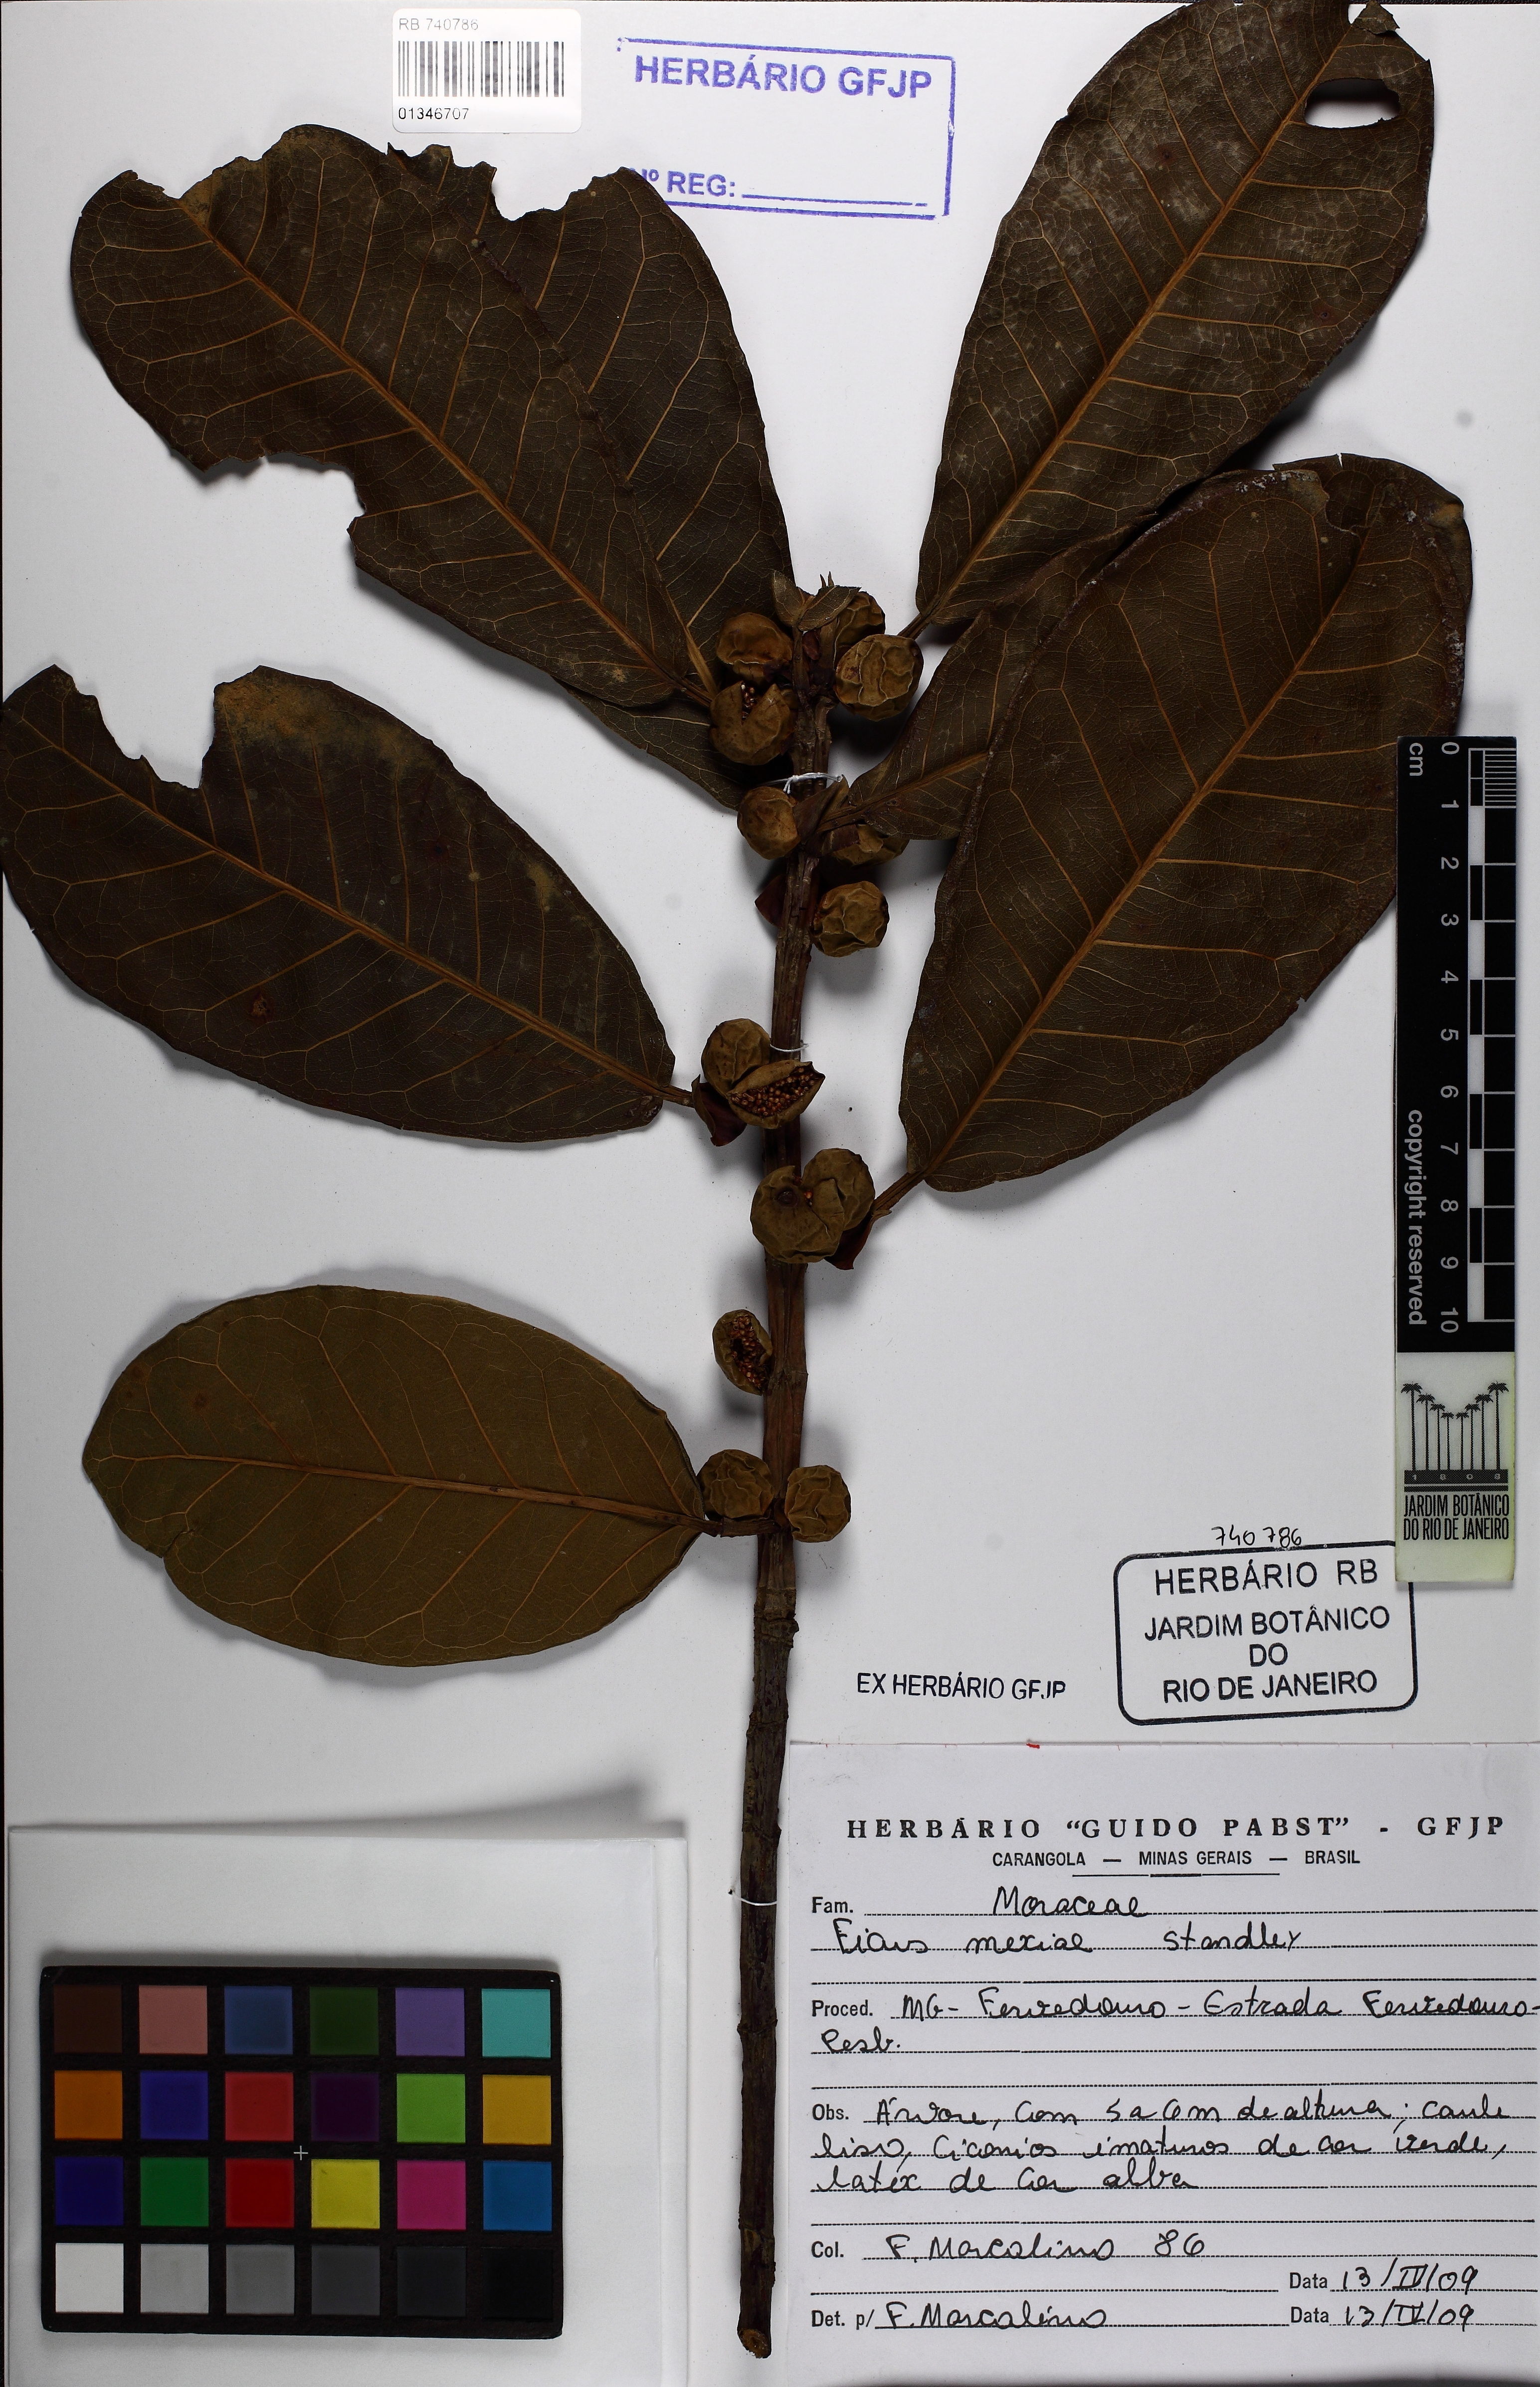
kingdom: Plantae
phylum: Tracheophyta
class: Magnoliopsida
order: Rosales
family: Moraceae
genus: Ficus
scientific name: Ficus mexiae
